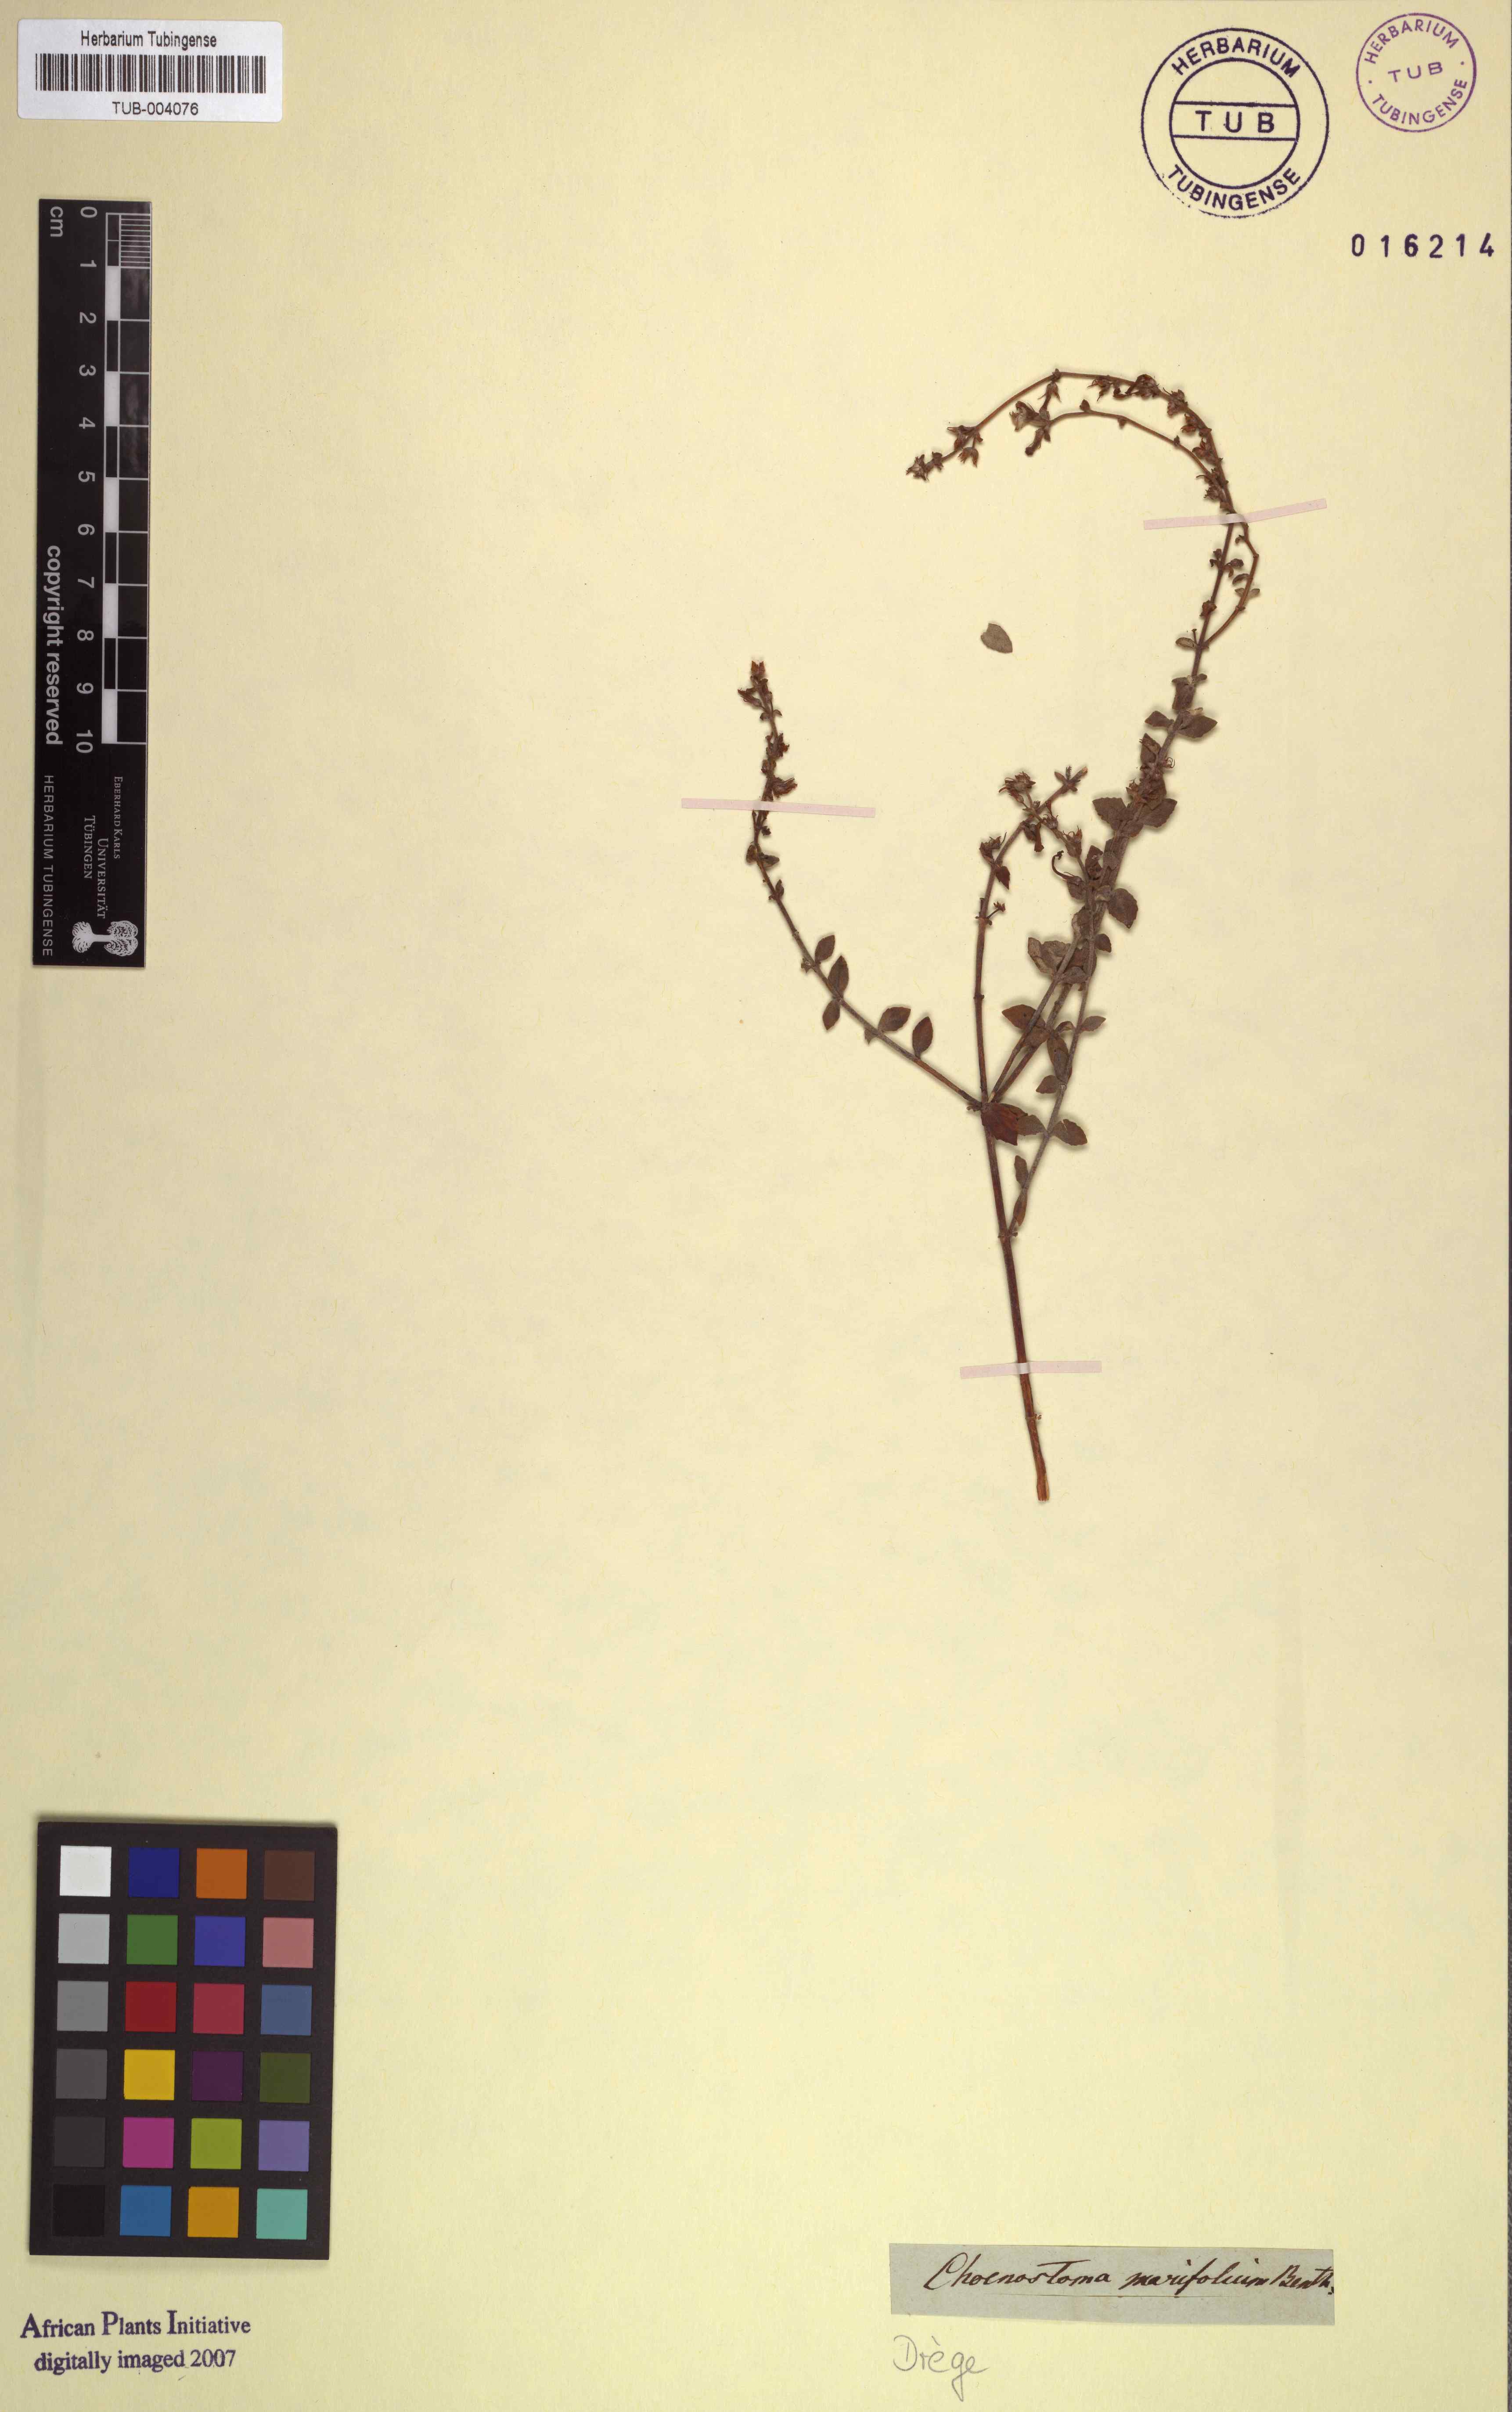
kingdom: Plantae
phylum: Tracheophyta
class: Magnoliopsida
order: Lamiales
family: Scrophulariaceae
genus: Chaenostoma
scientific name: Chaenostoma marifolium
